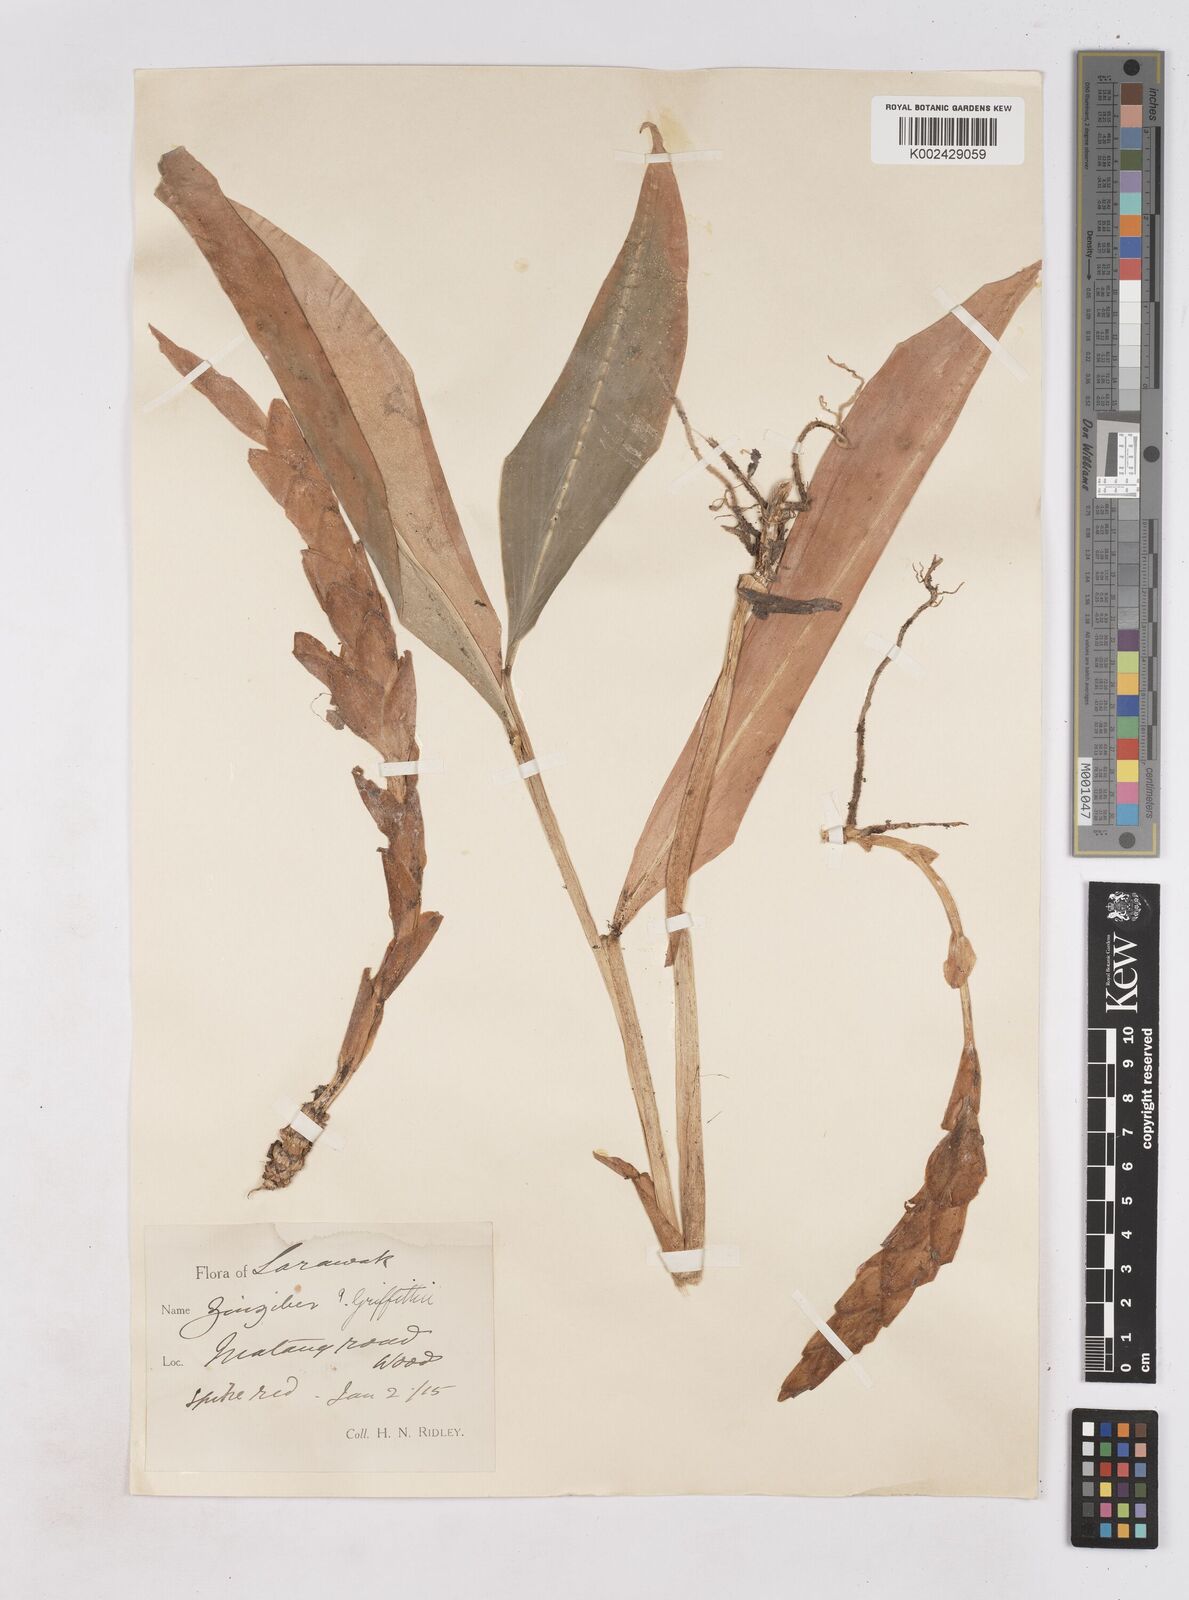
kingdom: Plantae
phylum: Tracheophyta
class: Liliopsida
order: Zingiberales
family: Zingiberaceae
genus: Zingiber
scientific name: Zingiber griffithii
